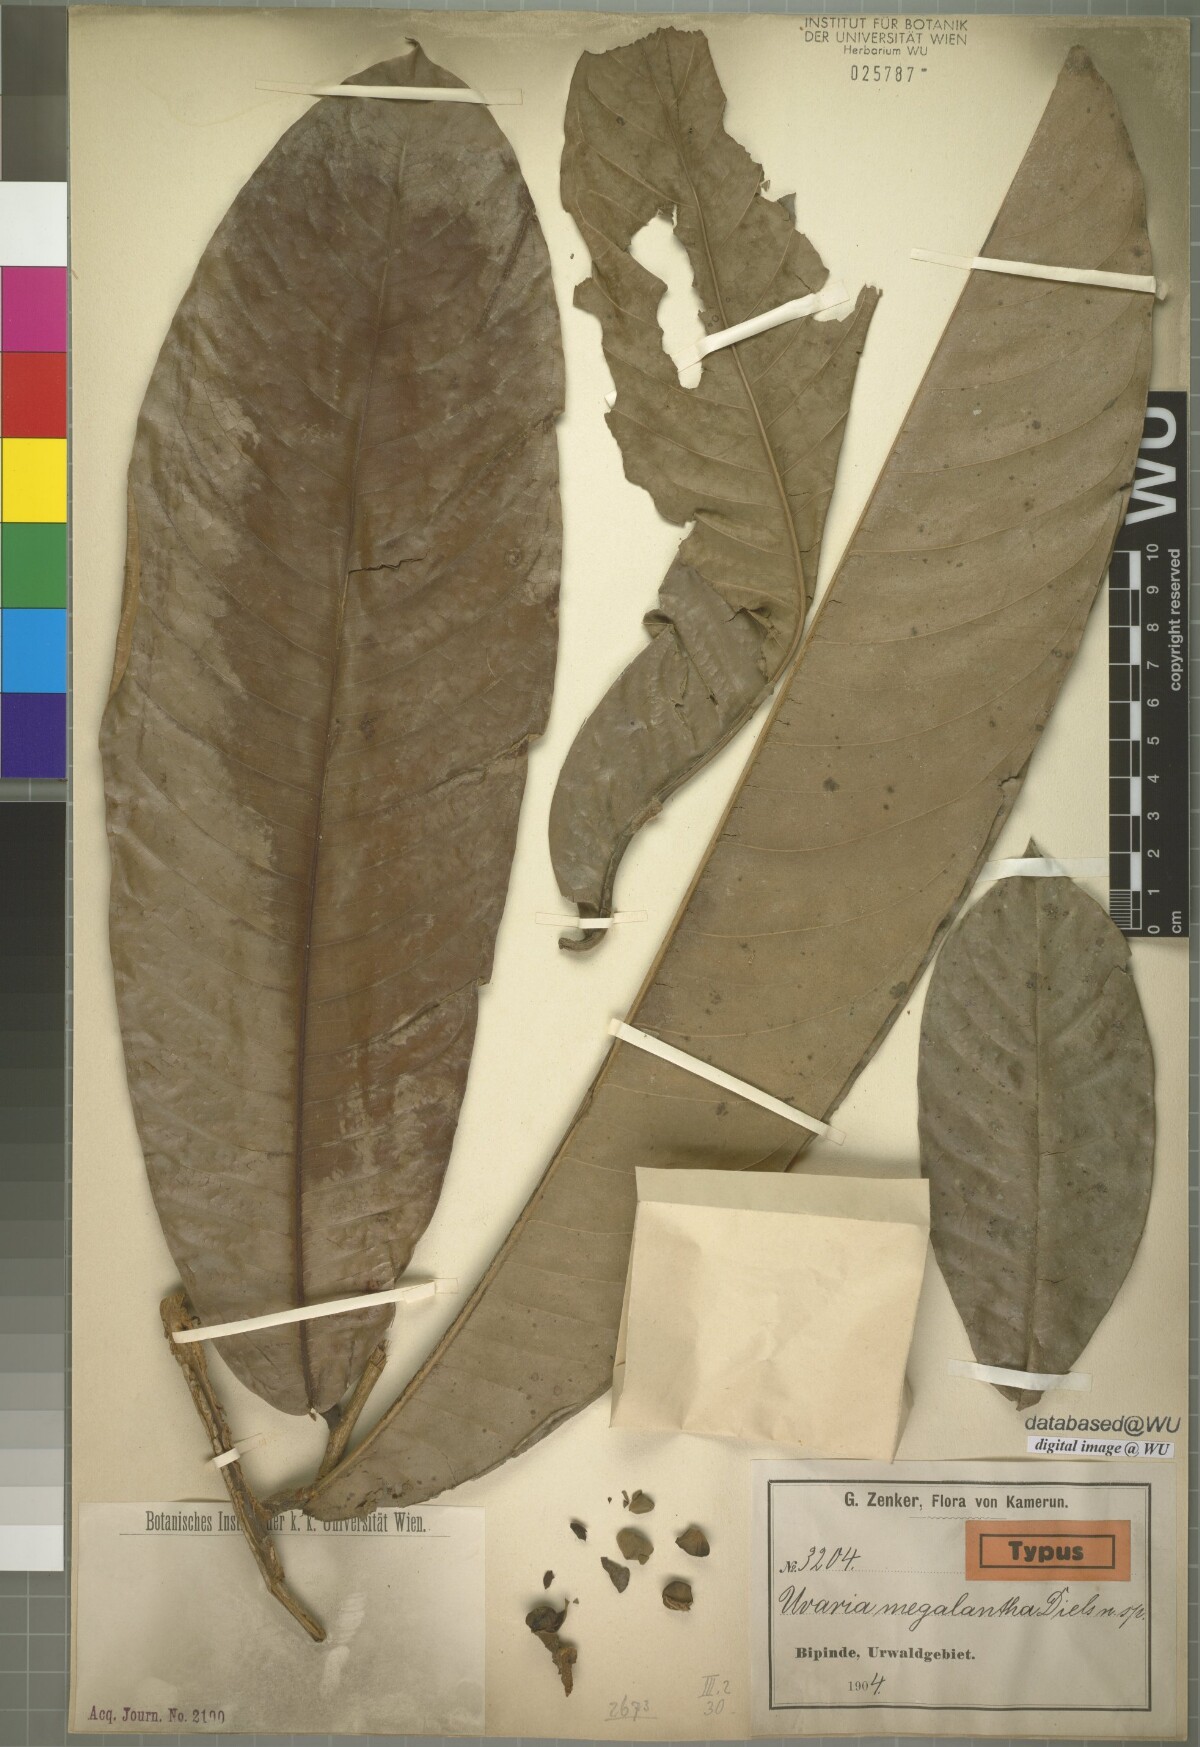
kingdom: Plantae
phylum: Tracheophyta
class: Magnoliopsida
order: Magnoliales
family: Annonaceae
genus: Uvariodendron
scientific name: Uvariodendron connivens
